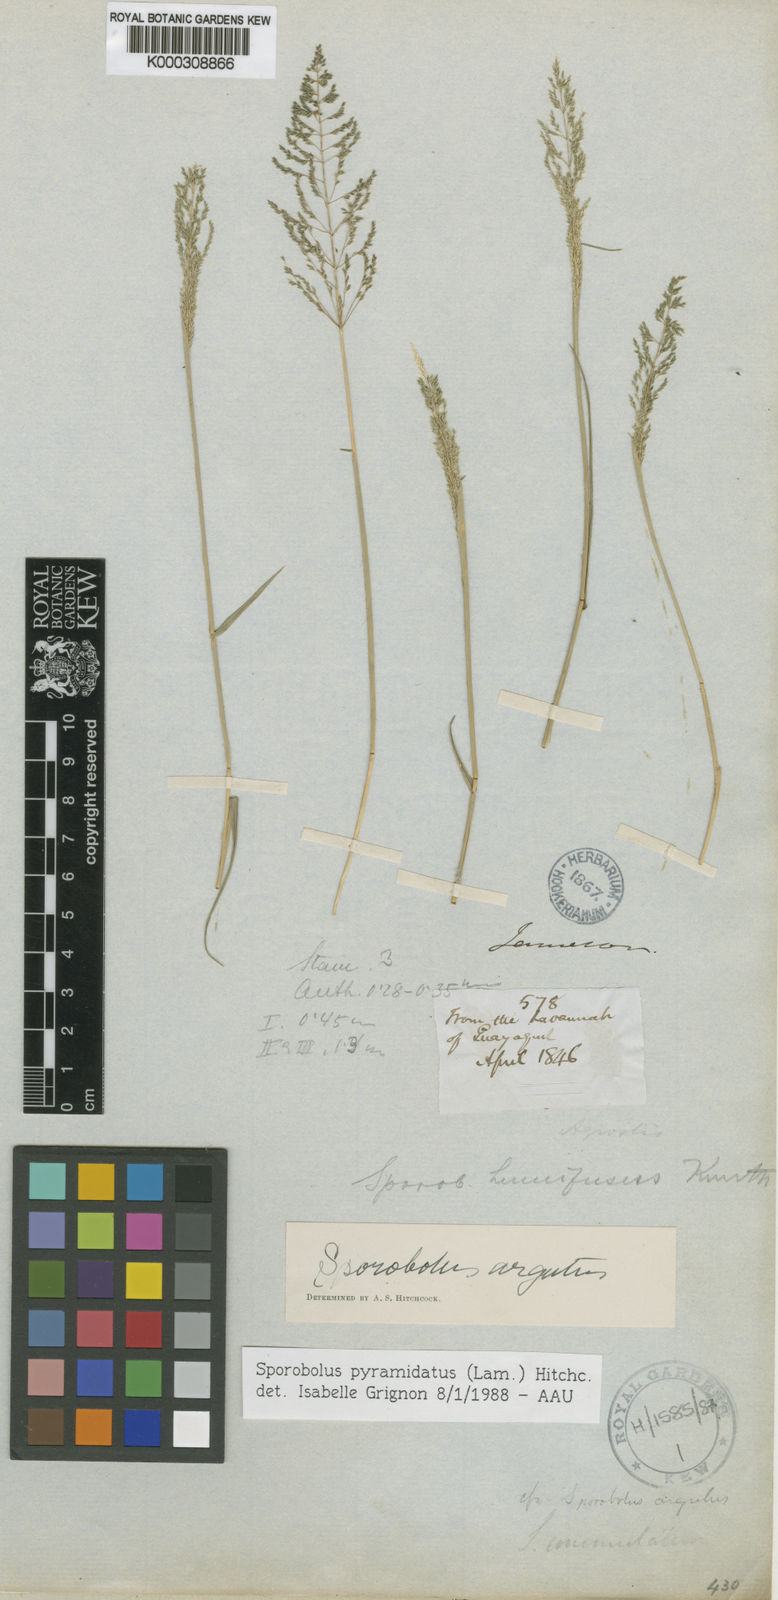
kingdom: Plantae
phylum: Tracheophyta
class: Liliopsida
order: Poales
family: Poaceae
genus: Sporobolus
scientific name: Sporobolus pyramidatus
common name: Whorled dropseed
